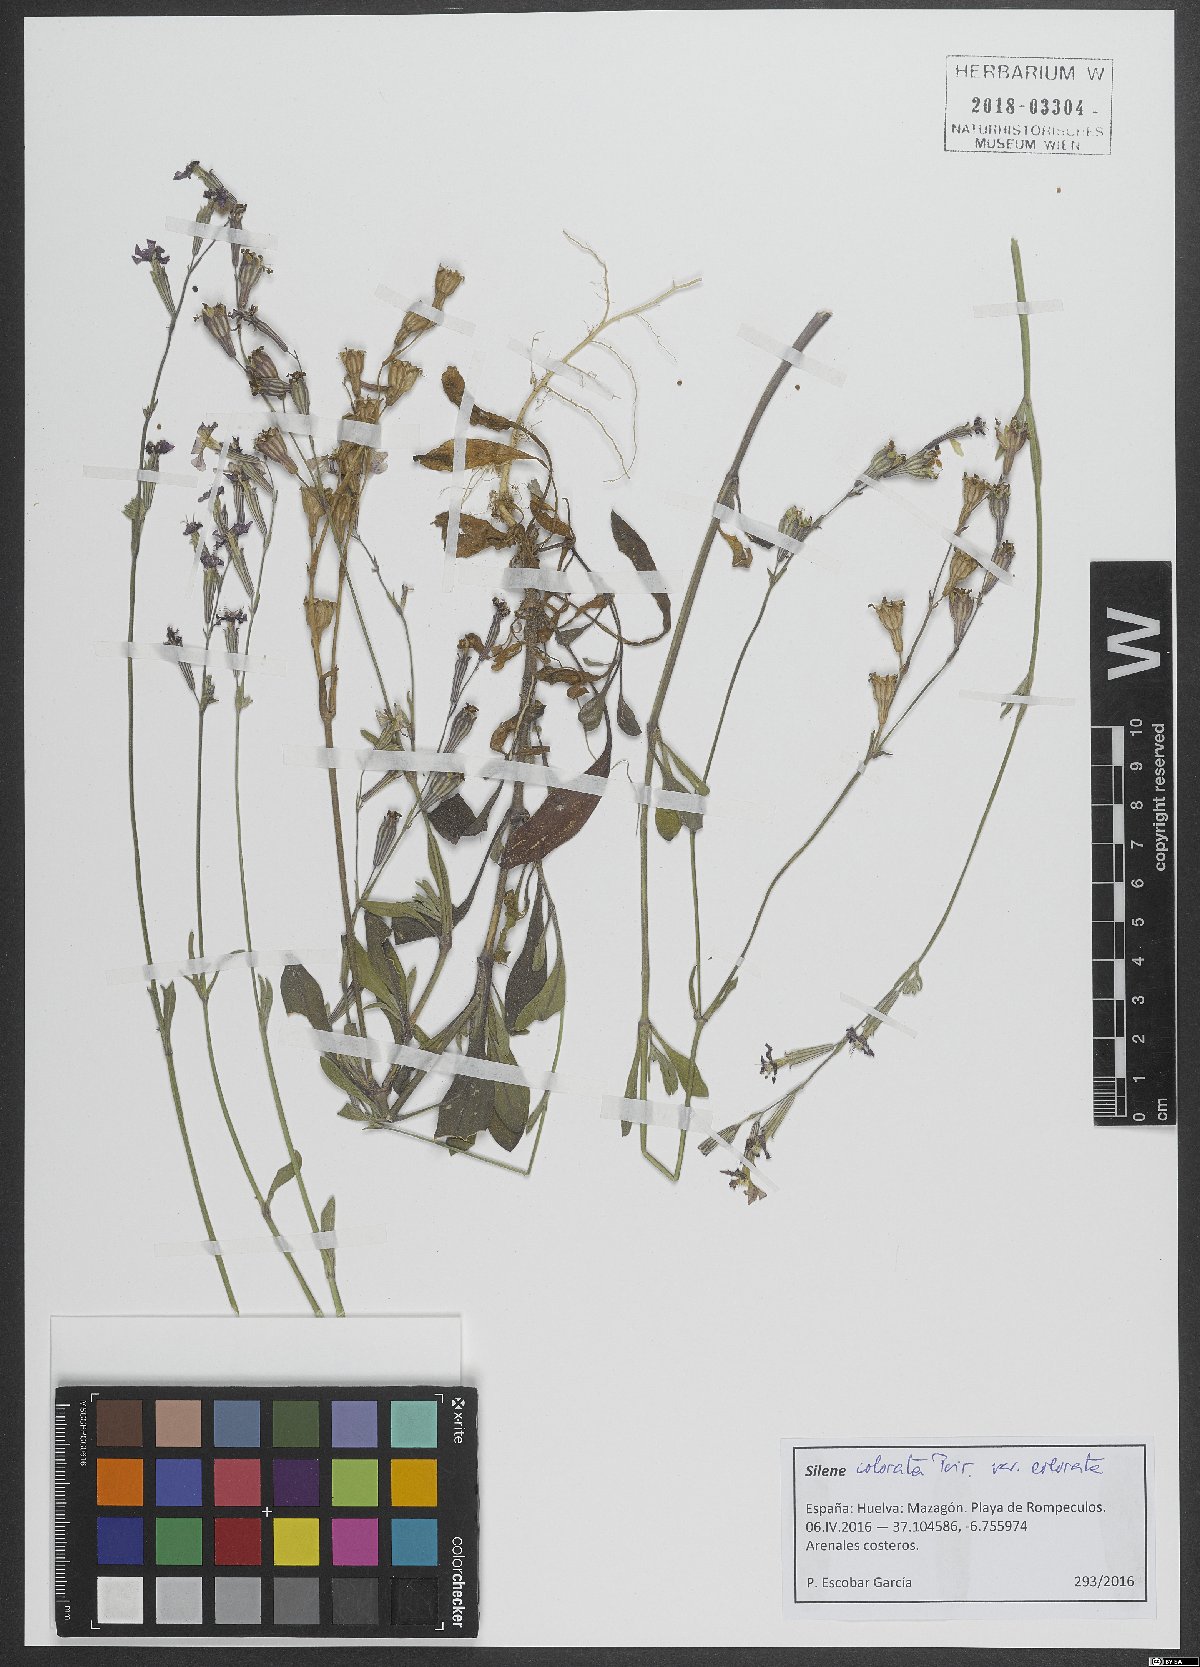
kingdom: Plantae
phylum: Tracheophyta
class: Magnoliopsida
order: Caryophyllales
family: Caryophyllaceae
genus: Silene
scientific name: Silene colorata
